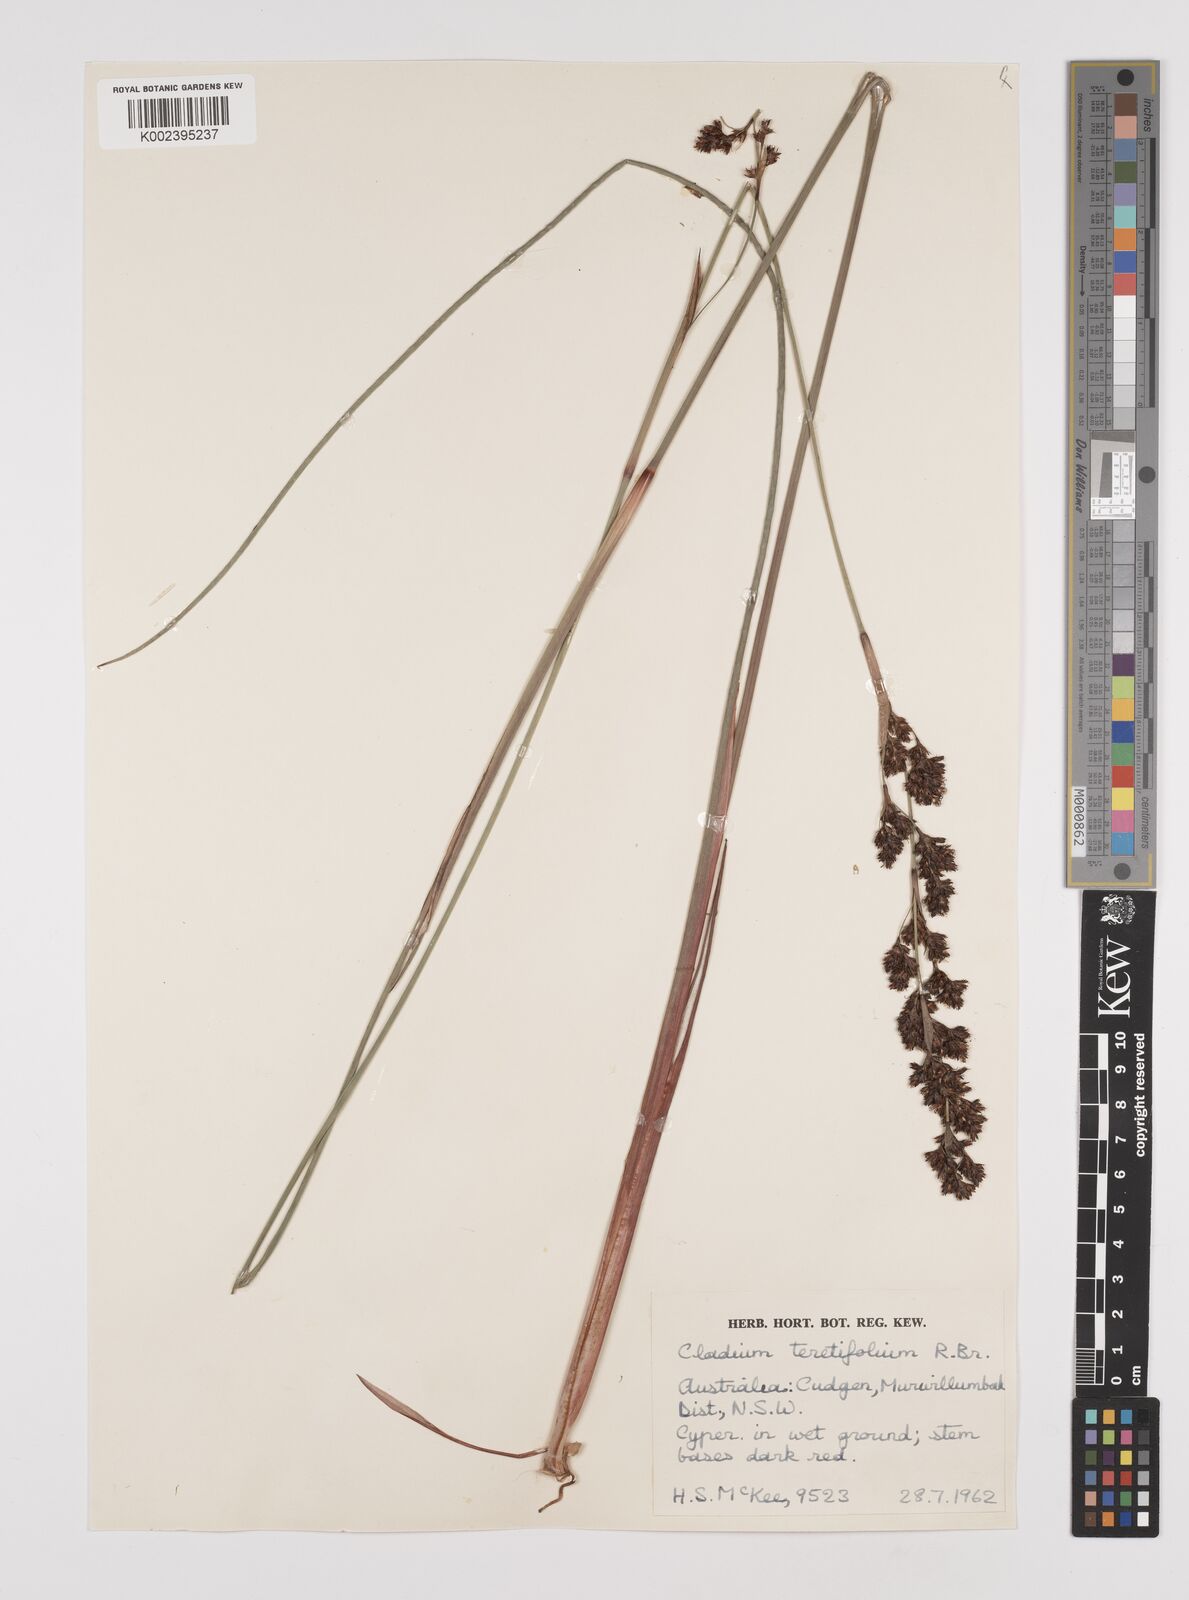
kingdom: Plantae
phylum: Tracheophyta
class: Liliopsida
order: Poales
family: Cyperaceae
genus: Machaerina
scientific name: Machaerina teretifolia
